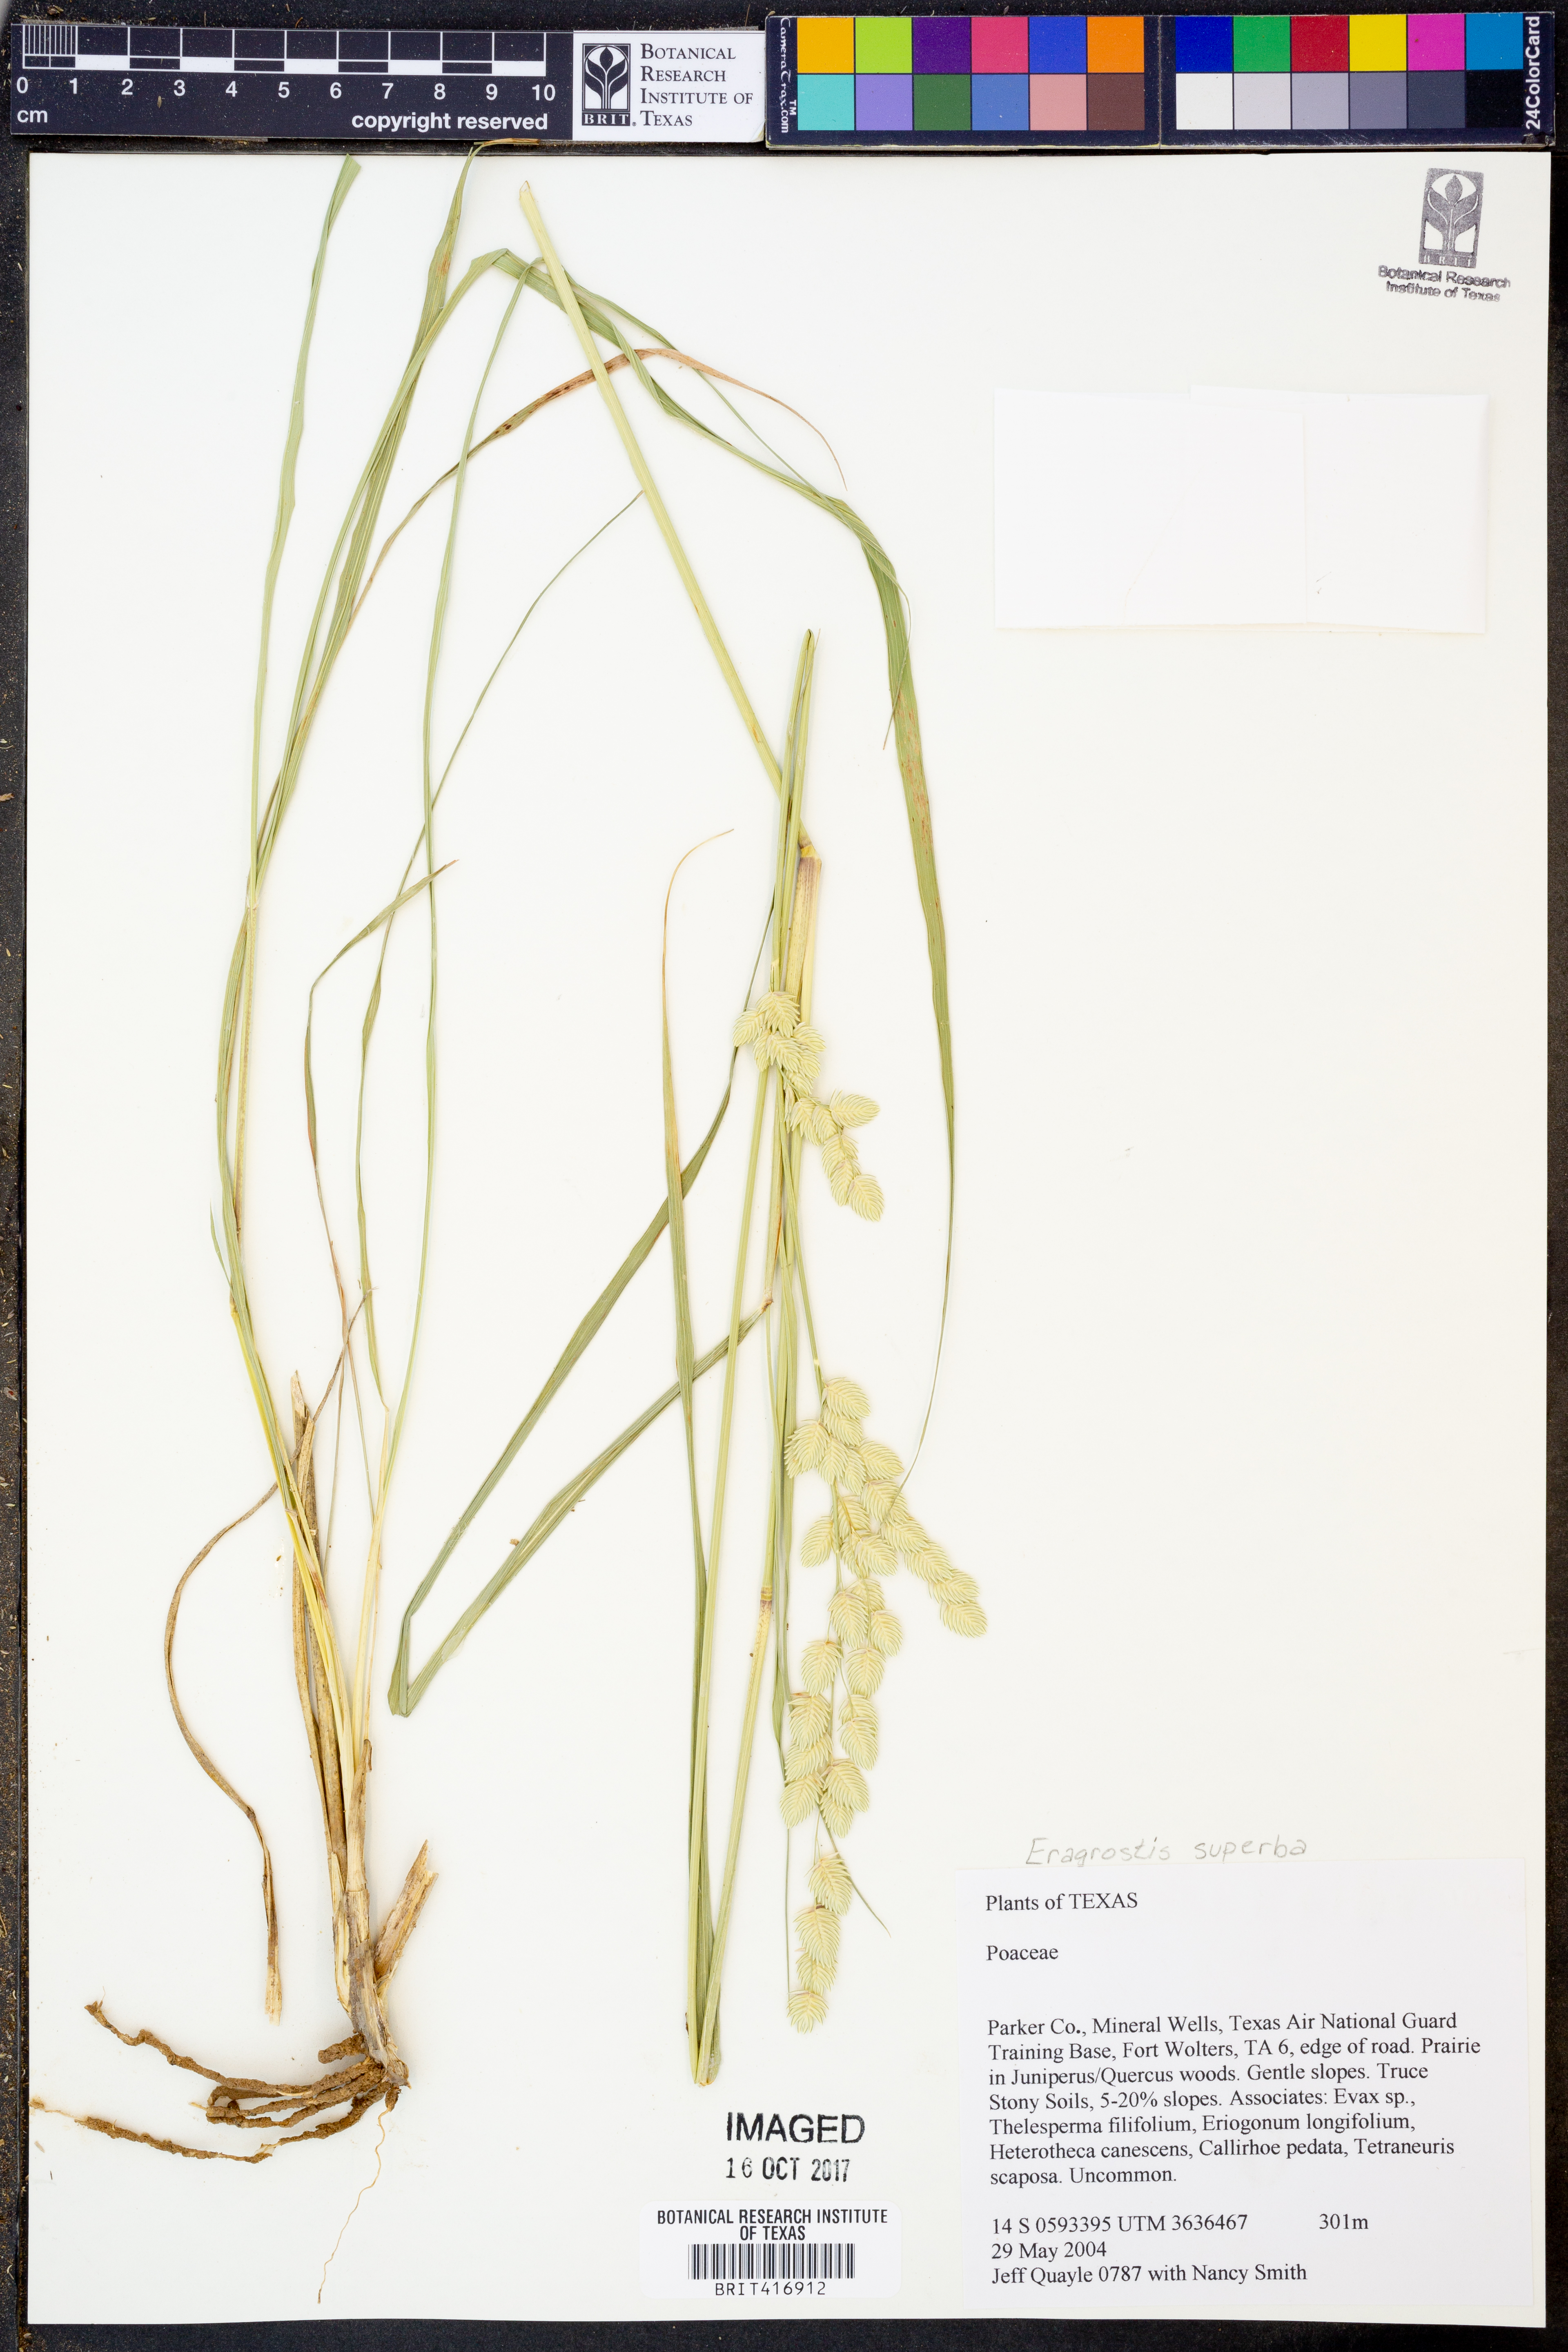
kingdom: Plantae
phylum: Tracheophyta
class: Liliopsida
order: Poales
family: Poaceae
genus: Eragrostis
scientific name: Eragrostis superba
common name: Wilman lovegrass
